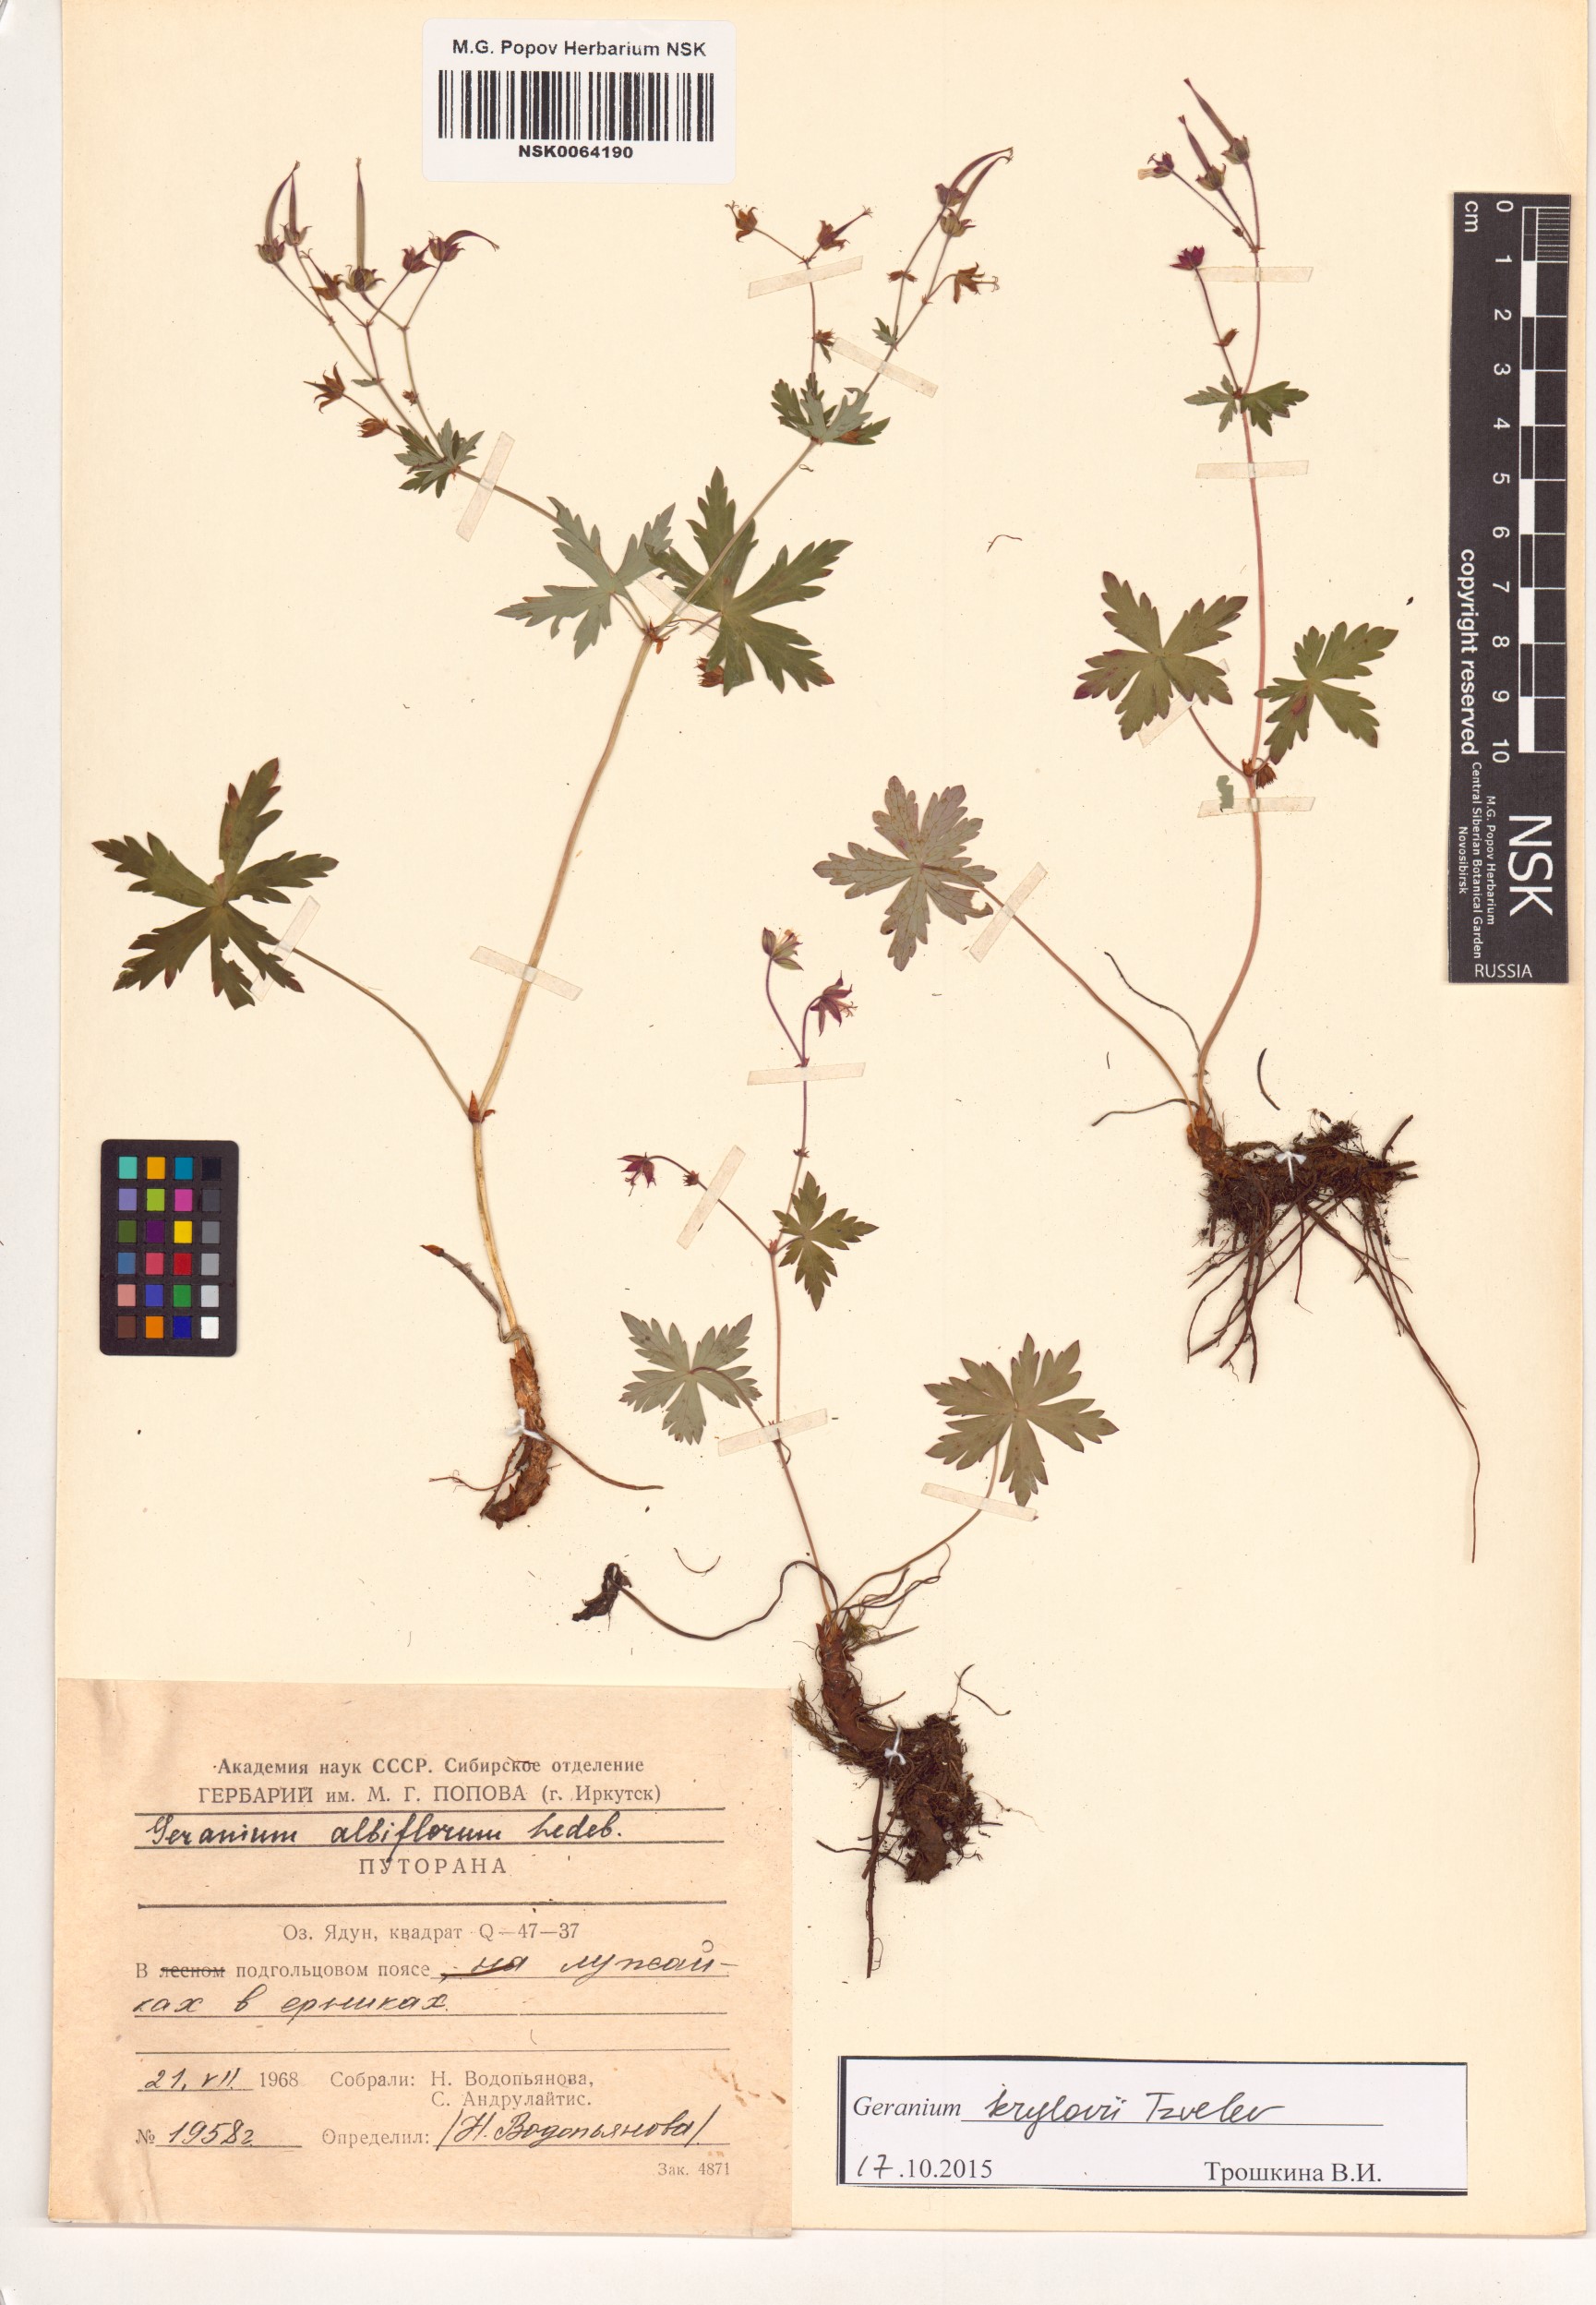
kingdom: Plantae
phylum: Tracheophyta
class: Magnoliopsida
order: Geraniales
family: Geraniaceae
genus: Geranium
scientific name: Geranium sylvaticum
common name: Wood crane's-bill
